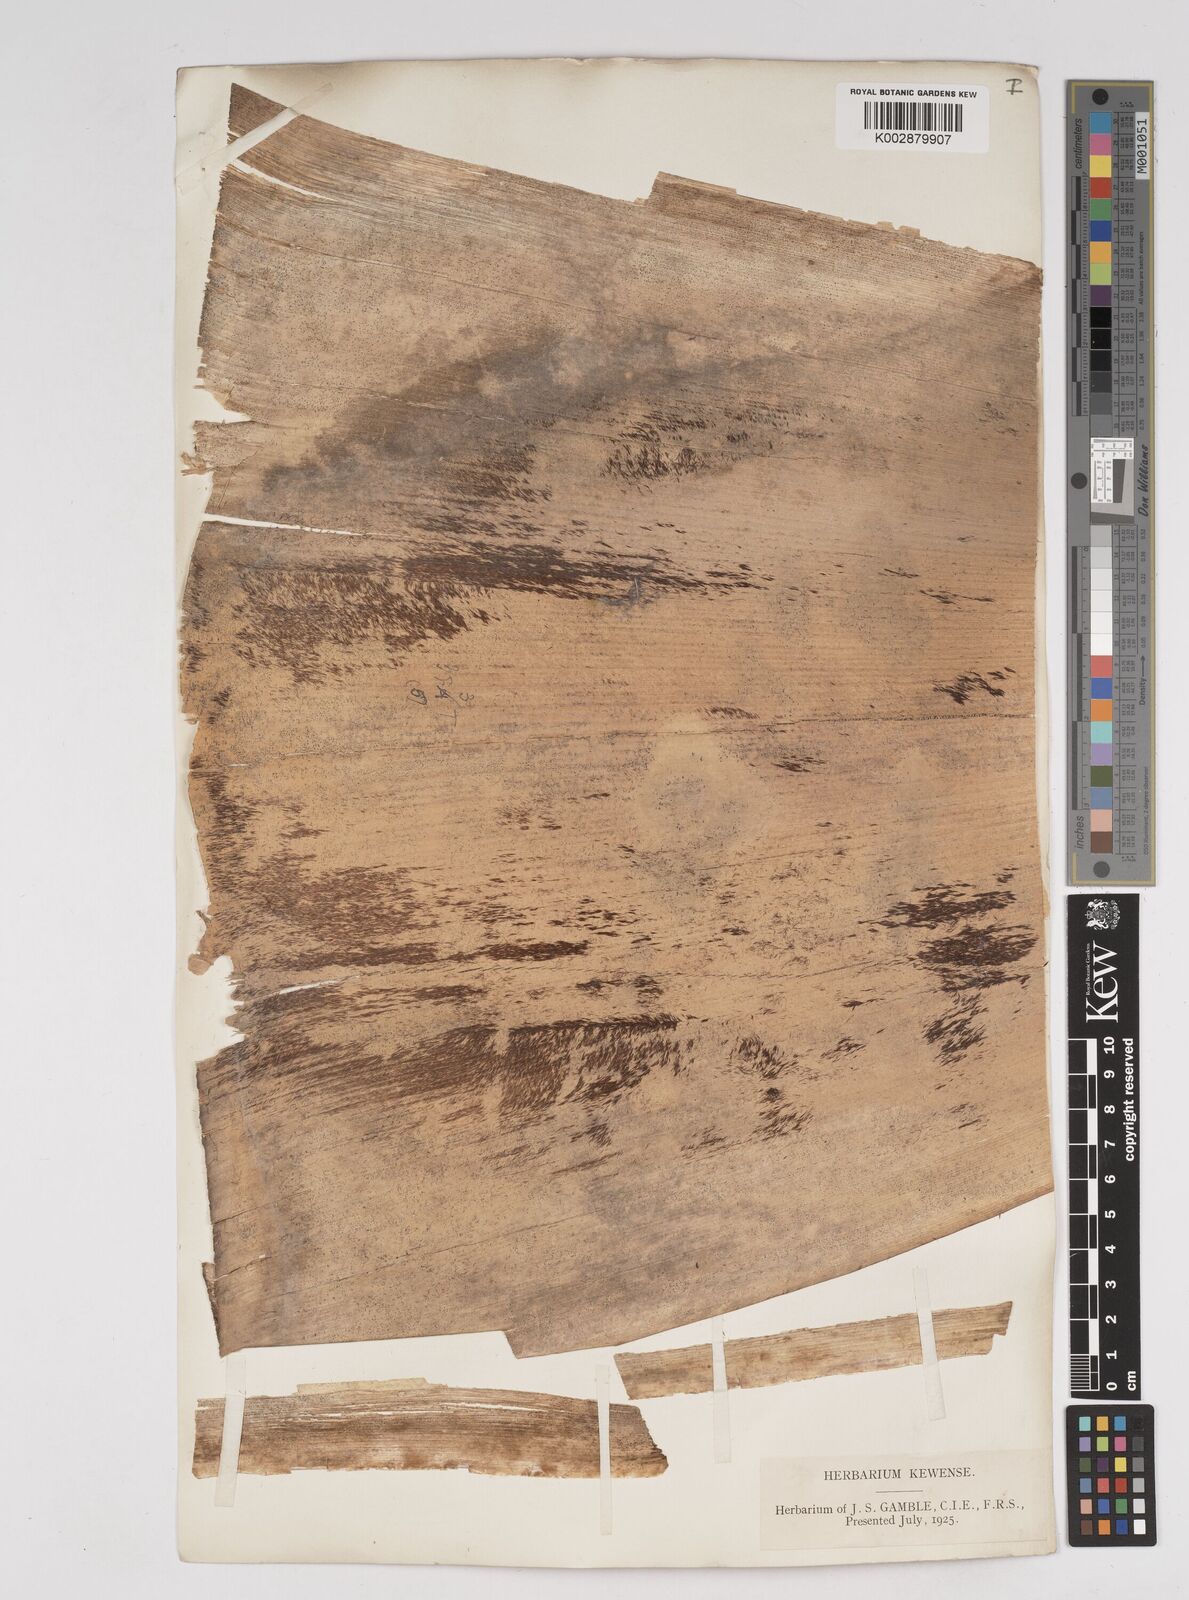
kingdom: Plantae
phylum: Tracheophyta
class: Liliopsida
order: Poales
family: Poaceae
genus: Gigantochloa
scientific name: Gigantochloa nigrociliata
